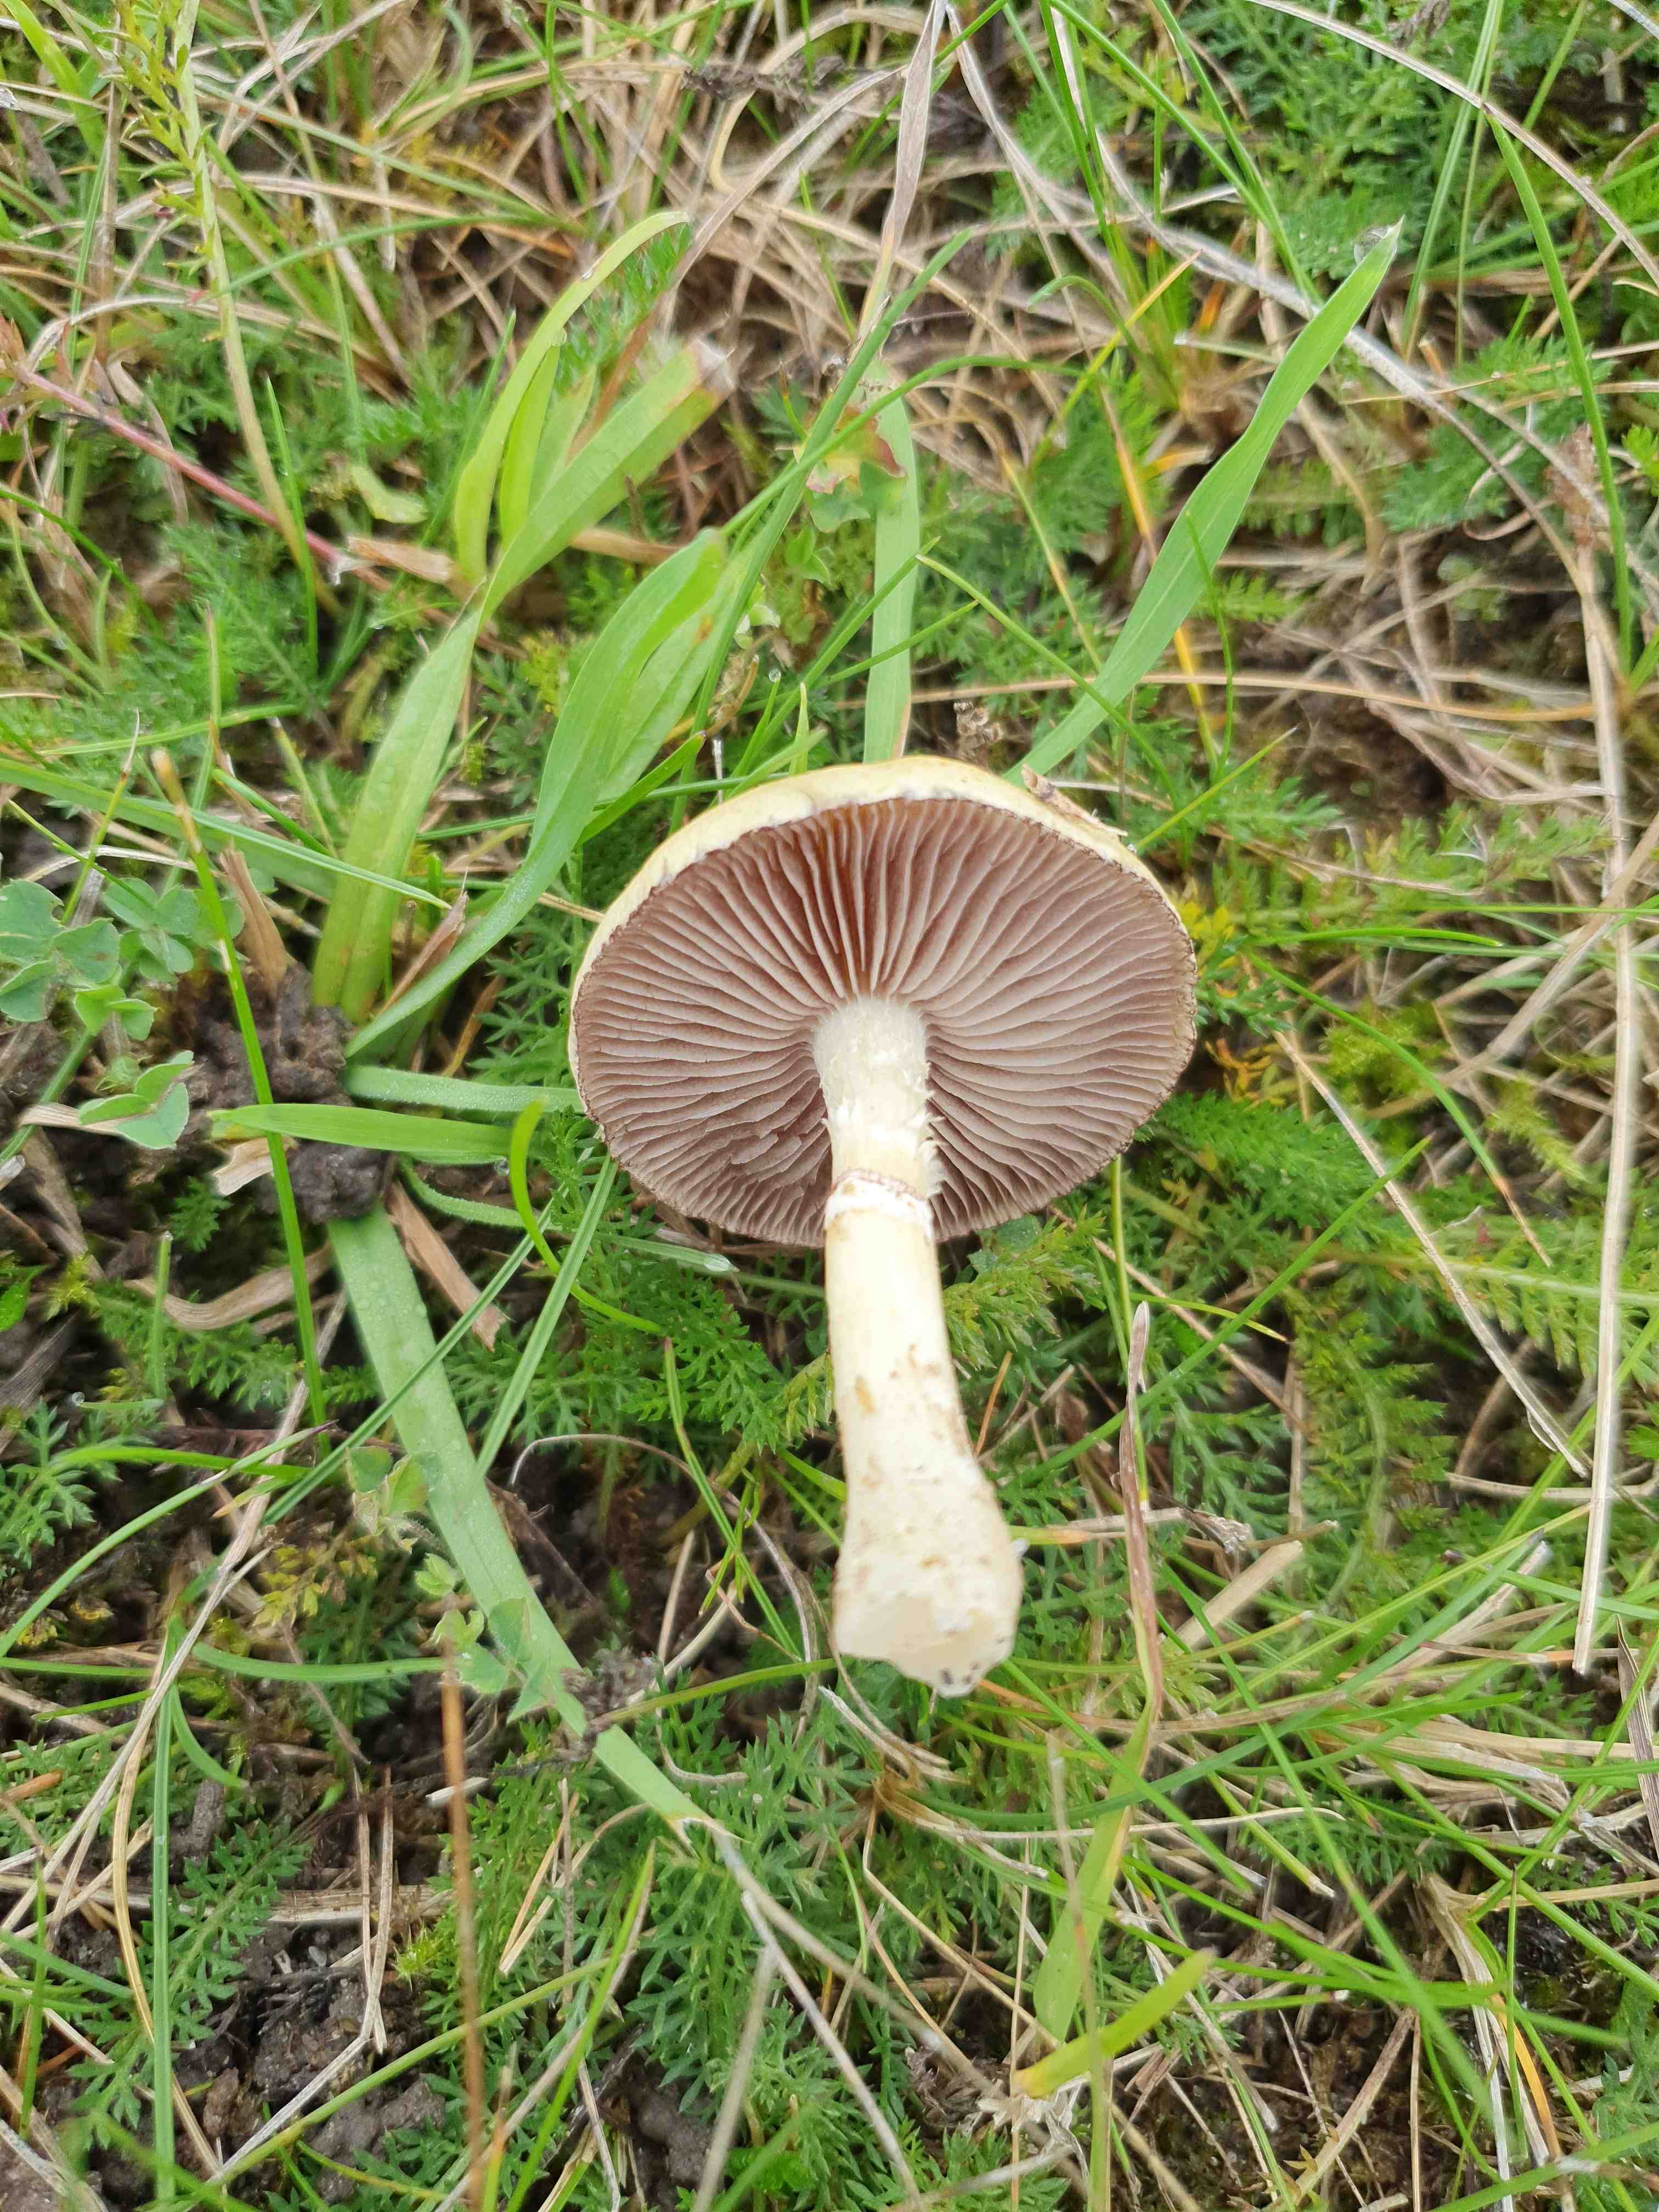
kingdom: Fungi
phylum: Basidiomycota
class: Agaricomycetes
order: Agaricales
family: Hymenogastraceae
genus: Psilocybe
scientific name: Psilocybe coronilla
